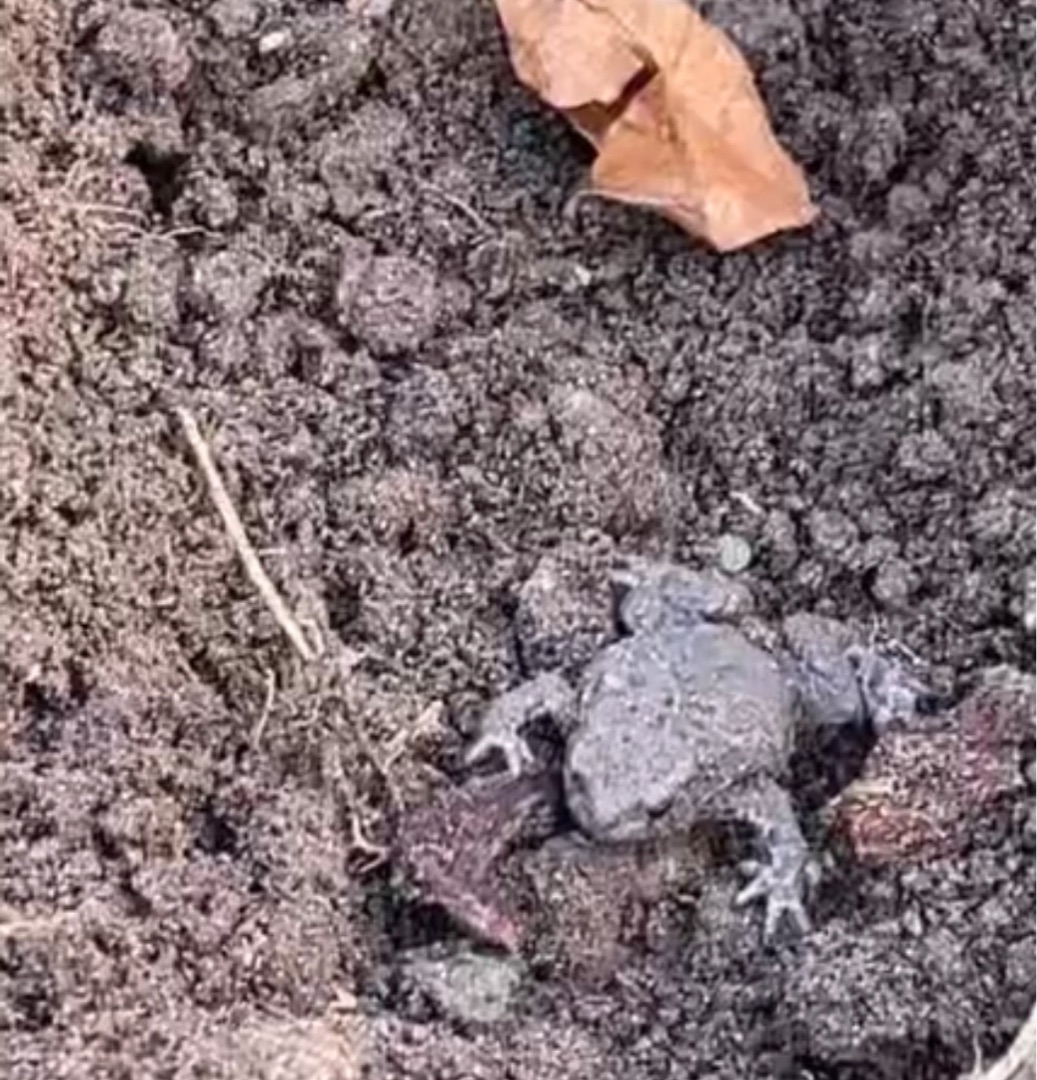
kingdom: Animalia
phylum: Chordata
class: Amphibia
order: Anura
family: Bufonidae
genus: Bufo
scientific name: Bufo bufo
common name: Skrubtudse
